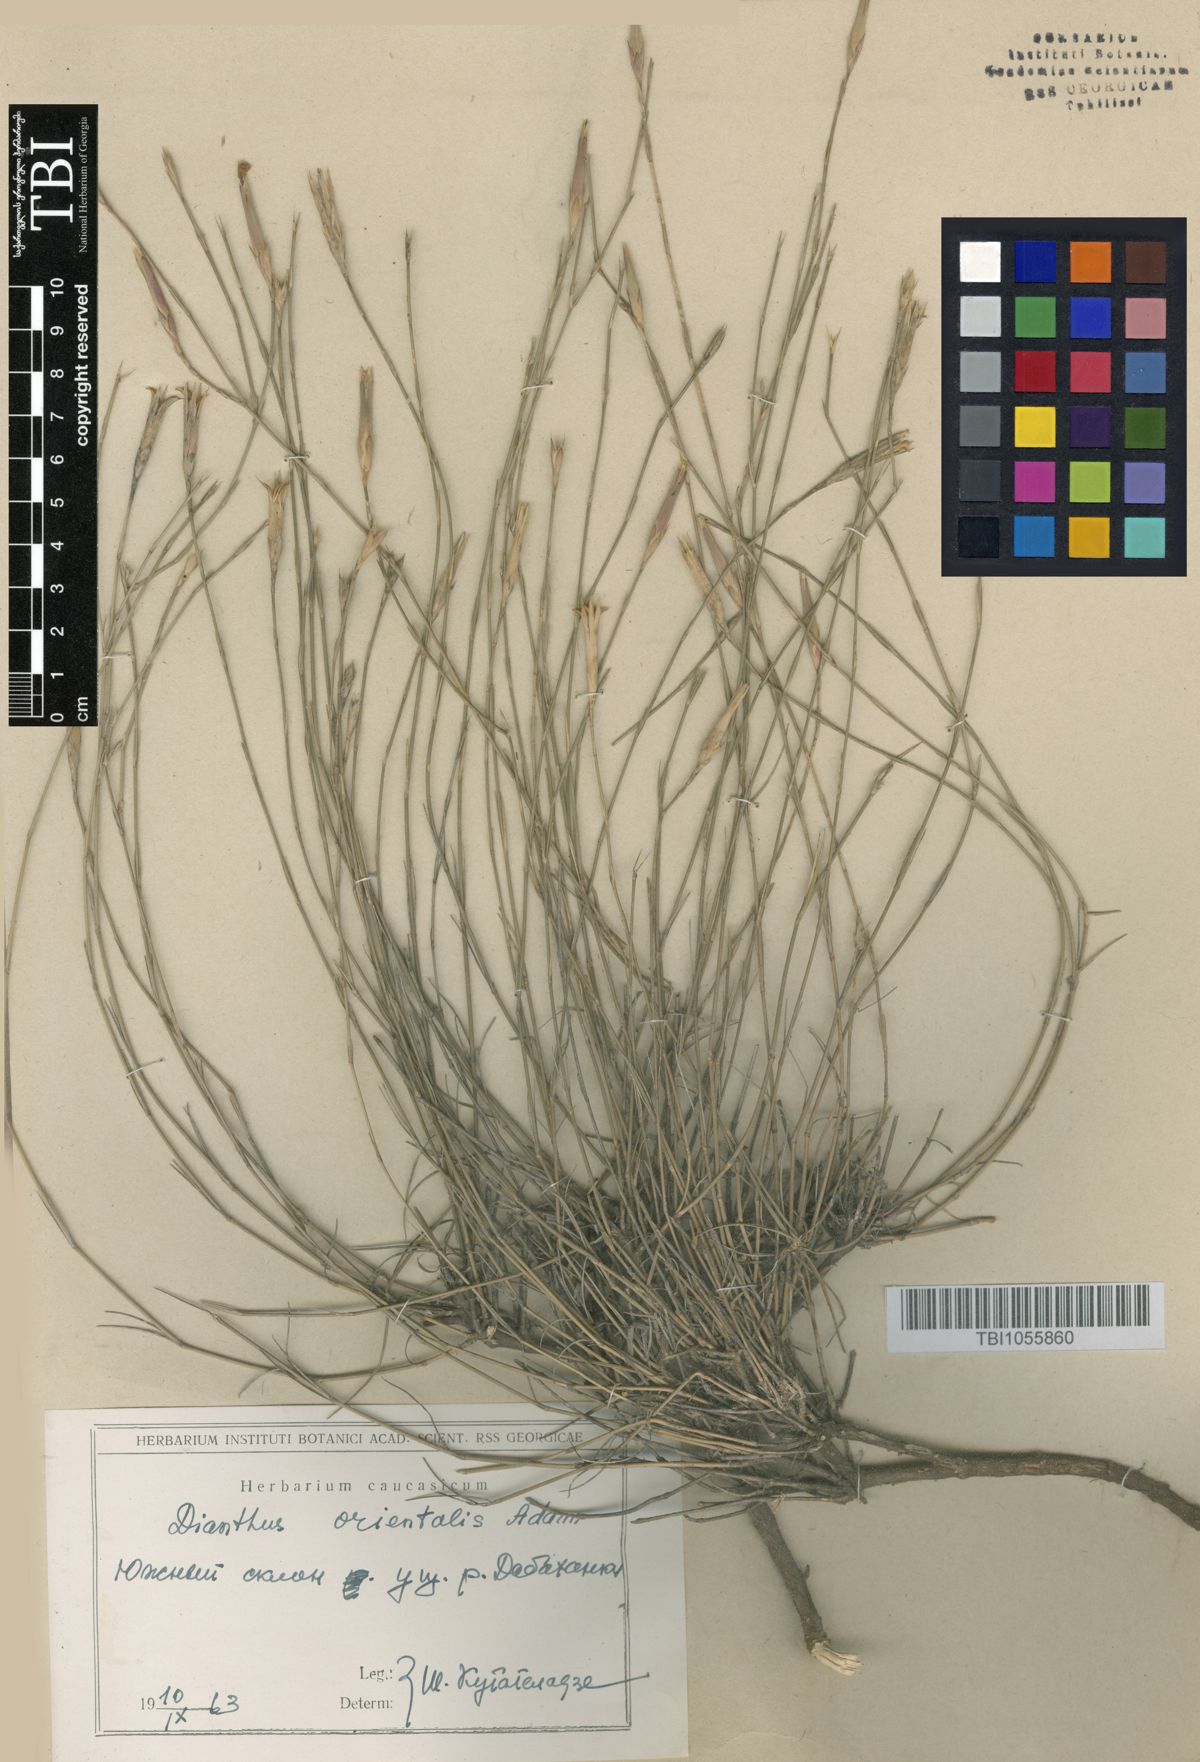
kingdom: Plantae
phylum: Tracheophyta
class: Magnoliopsida
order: Caryophyllales
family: Caryophyllaceae
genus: Dianthus
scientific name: Dianthus orientalis
